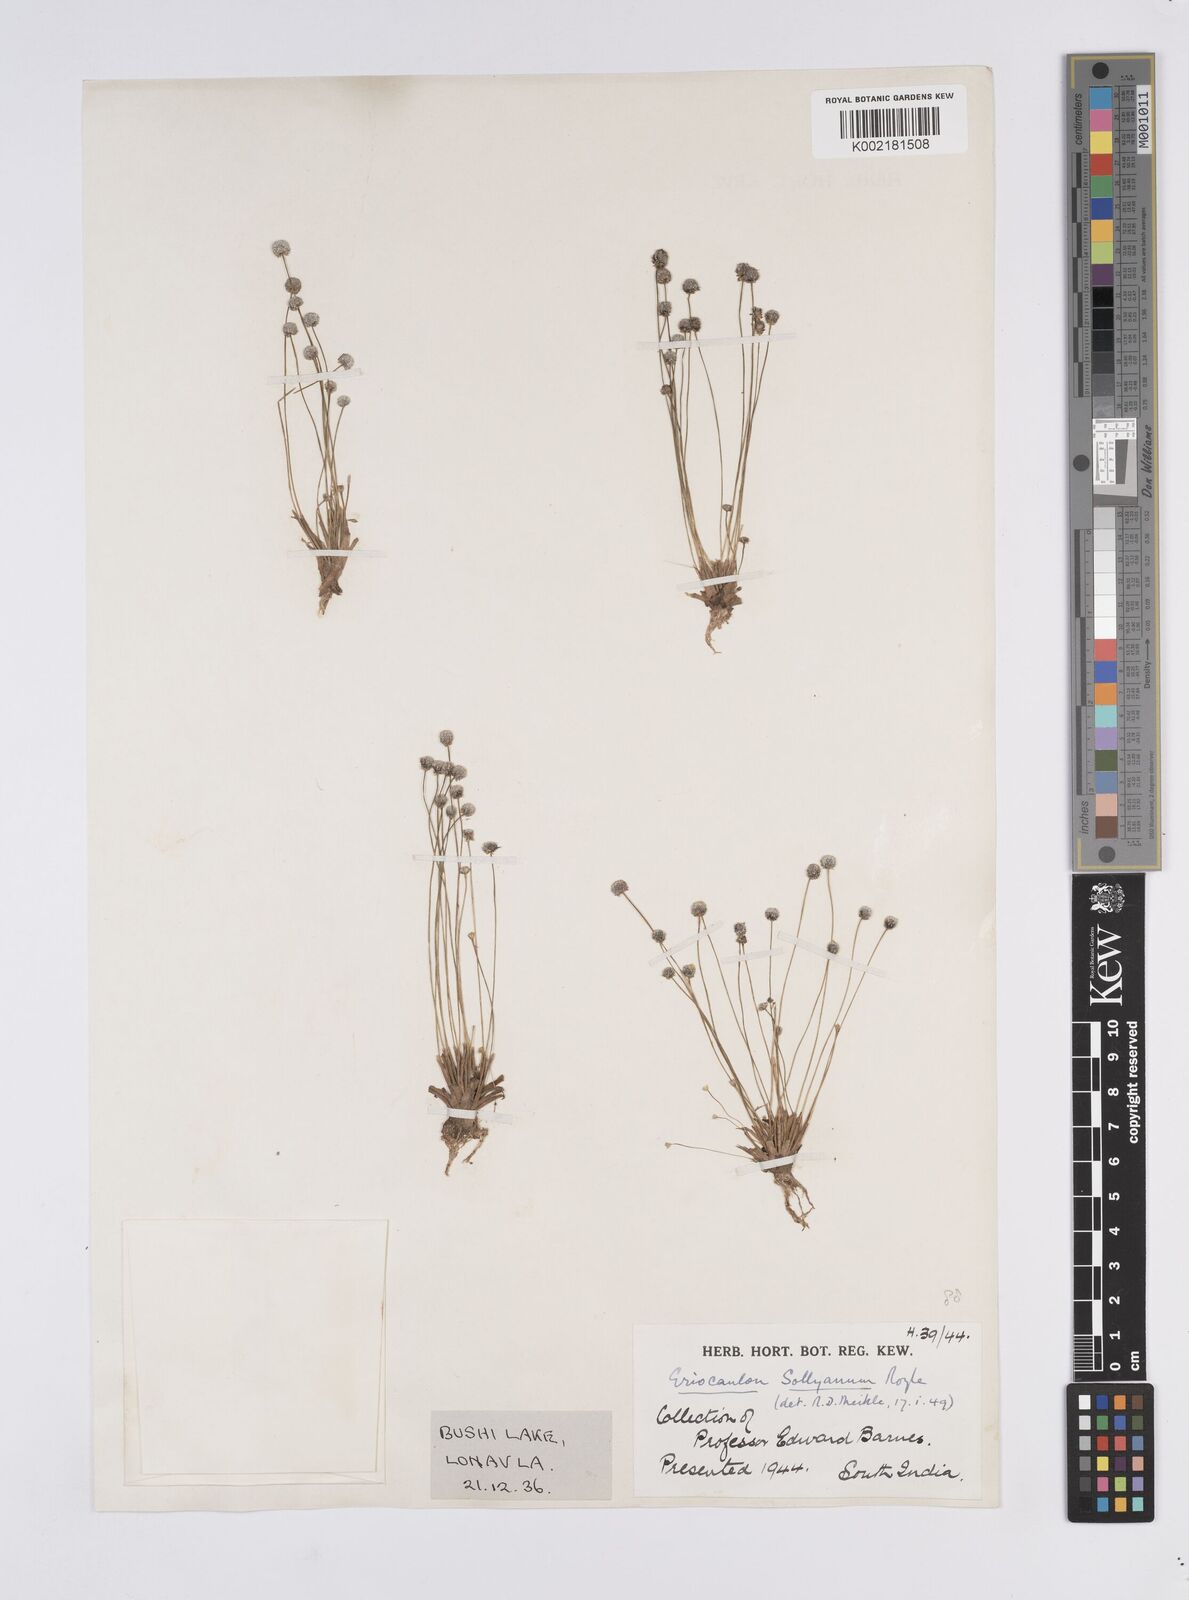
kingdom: Plantae
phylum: Tracheophyta
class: Liliopsida
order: Poales
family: Eriocaulaceae
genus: Eriocaulon
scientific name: Eriocaulon sollyanum
